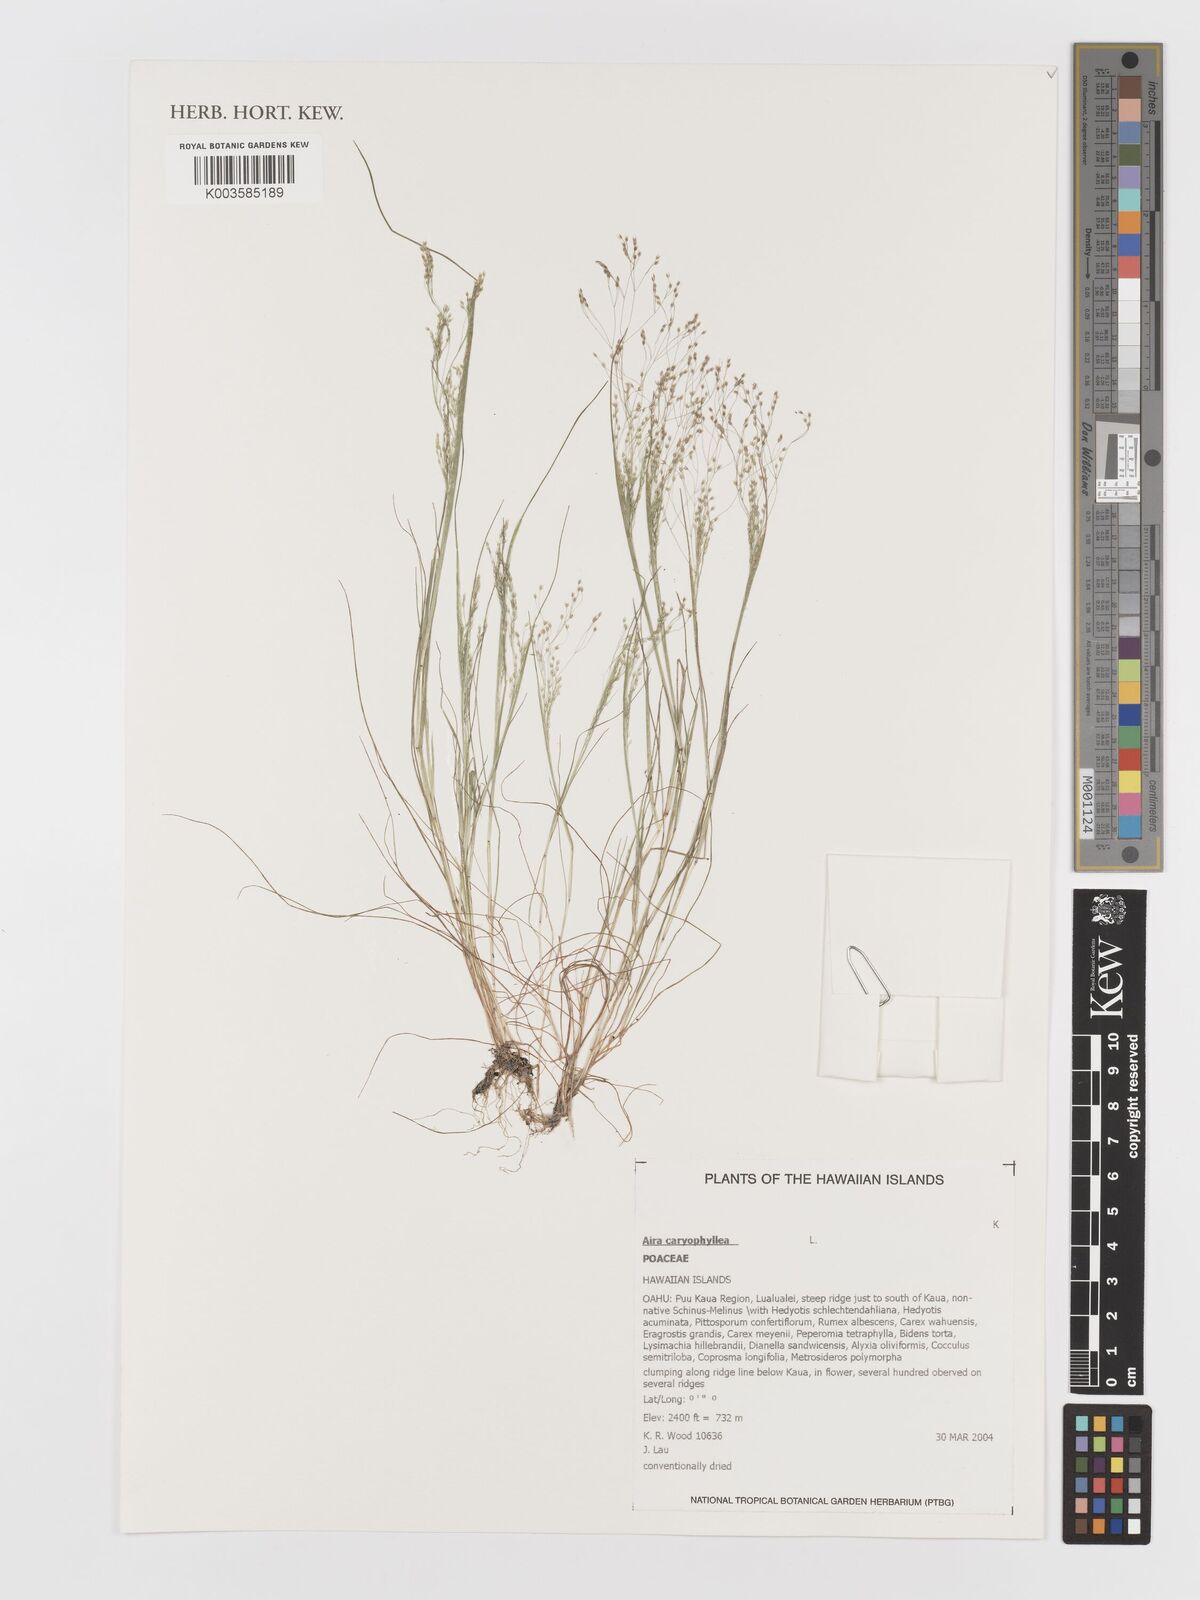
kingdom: Plantae
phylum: Tracheophyta
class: Liliopsida
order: Poales
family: Poaceae
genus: Aira
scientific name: Aira caryophyllea
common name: Silver hairgrass
